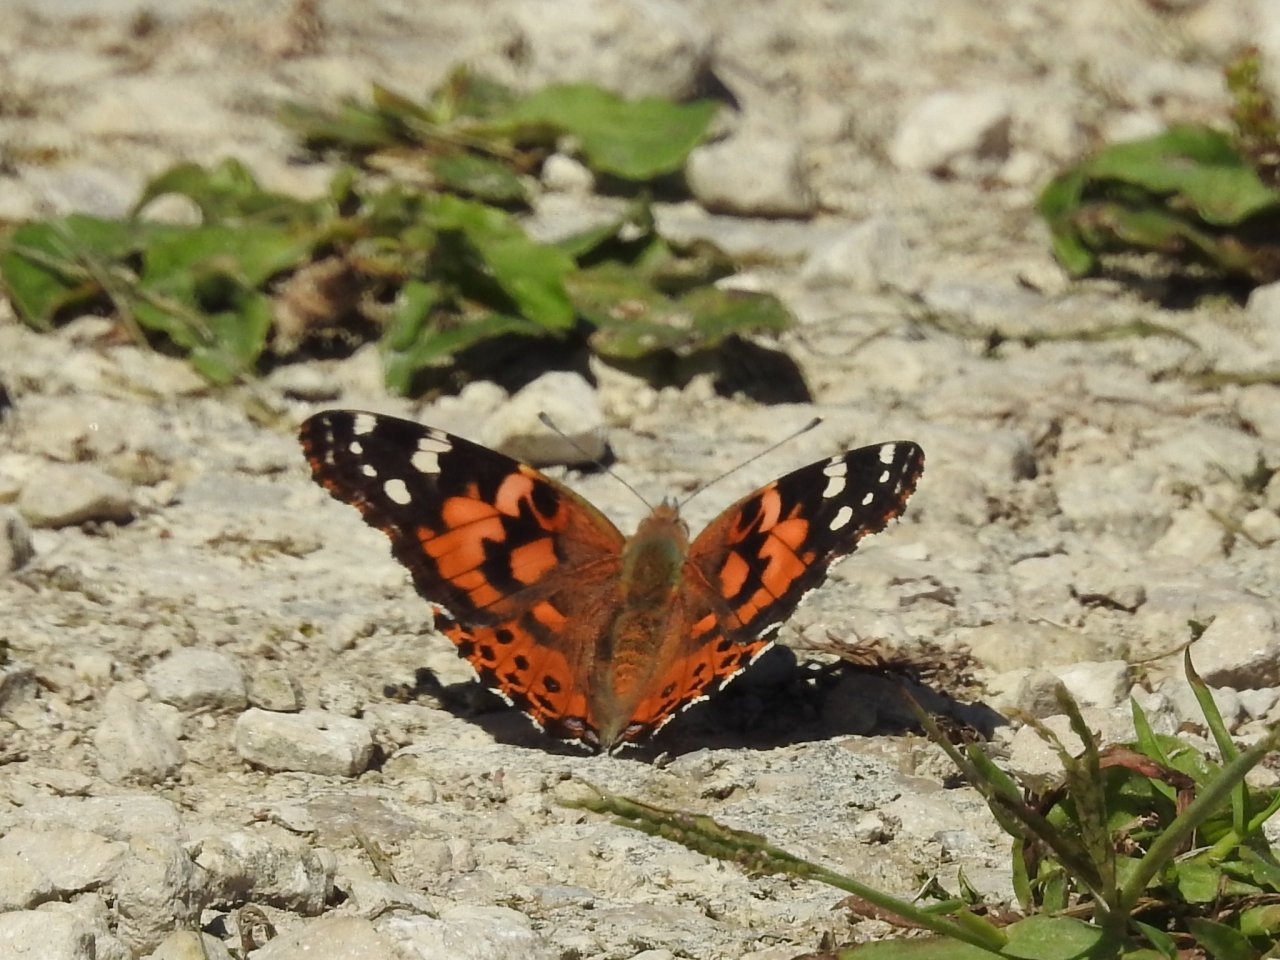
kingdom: Animalia
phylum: Arthropoda
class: Insecta
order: Lepidoptera
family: Nymphalidae
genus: Vanessa
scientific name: Vanessa cardui
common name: Painted Lady
